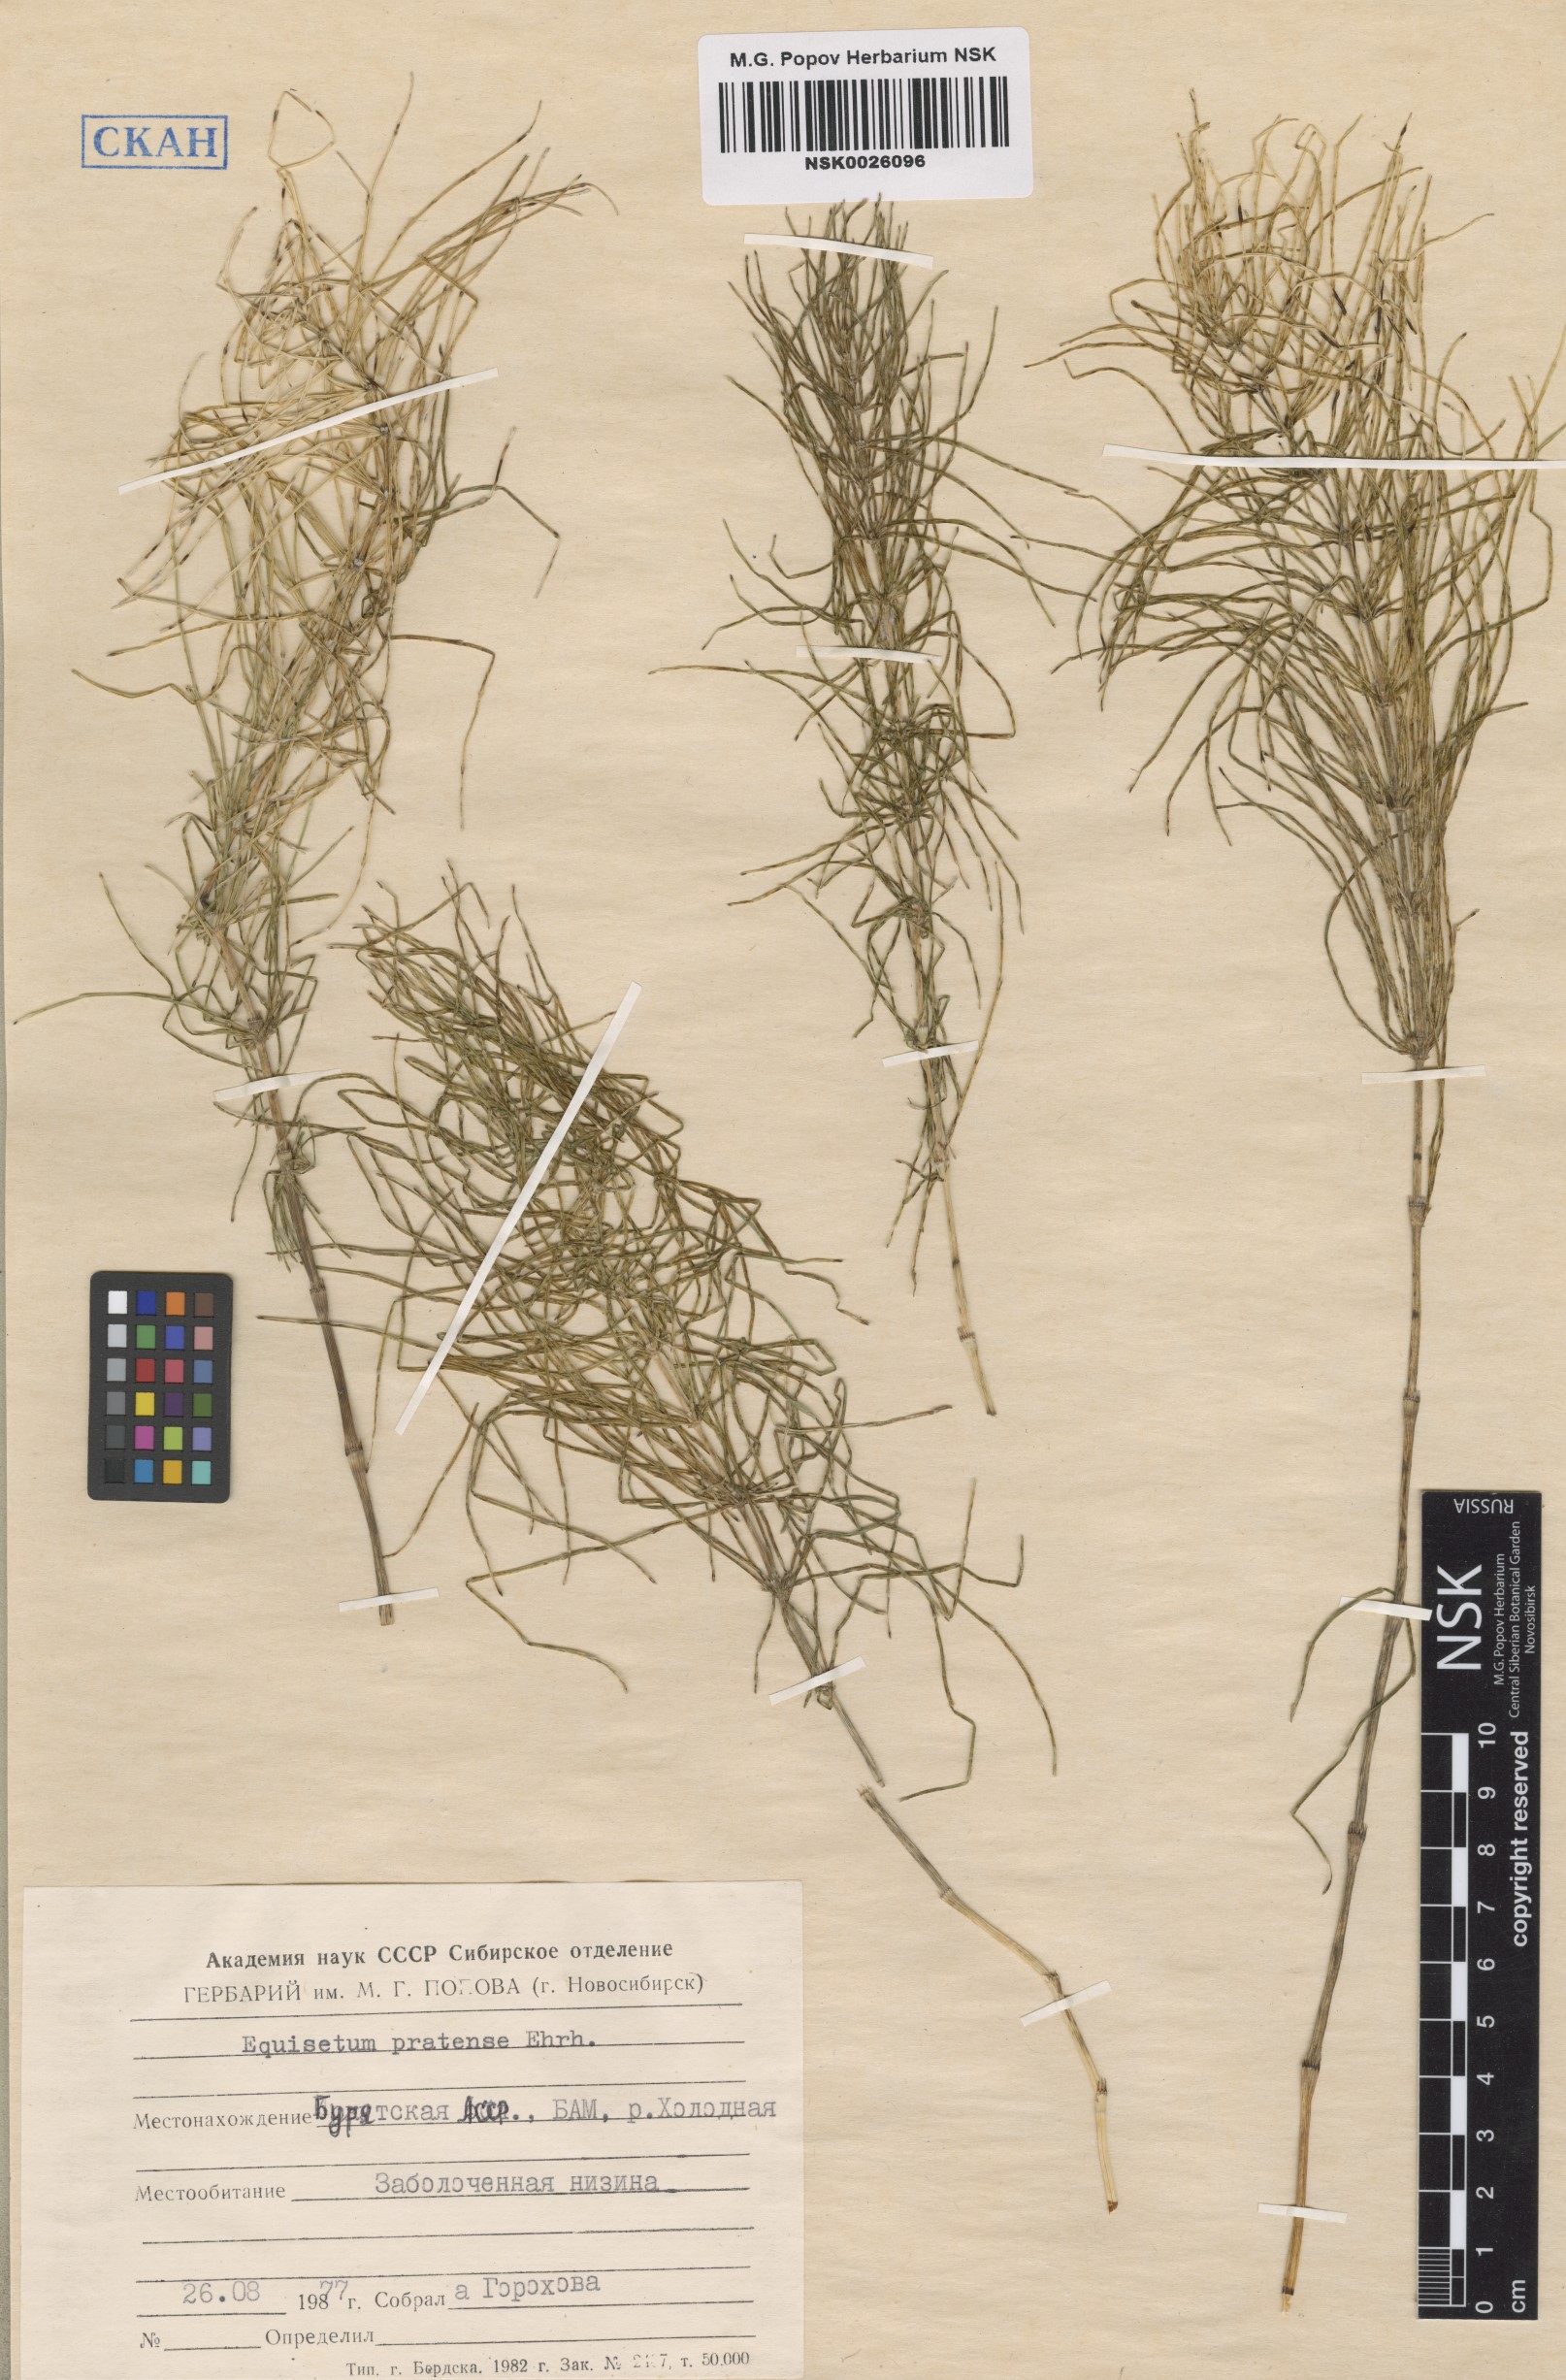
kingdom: Plantae
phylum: Tracheophyta
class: Polypodiopsida
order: Equisetales
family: Equisetaceae
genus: Equisetum
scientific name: Equisetum pratense
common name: Meadow horsetail
